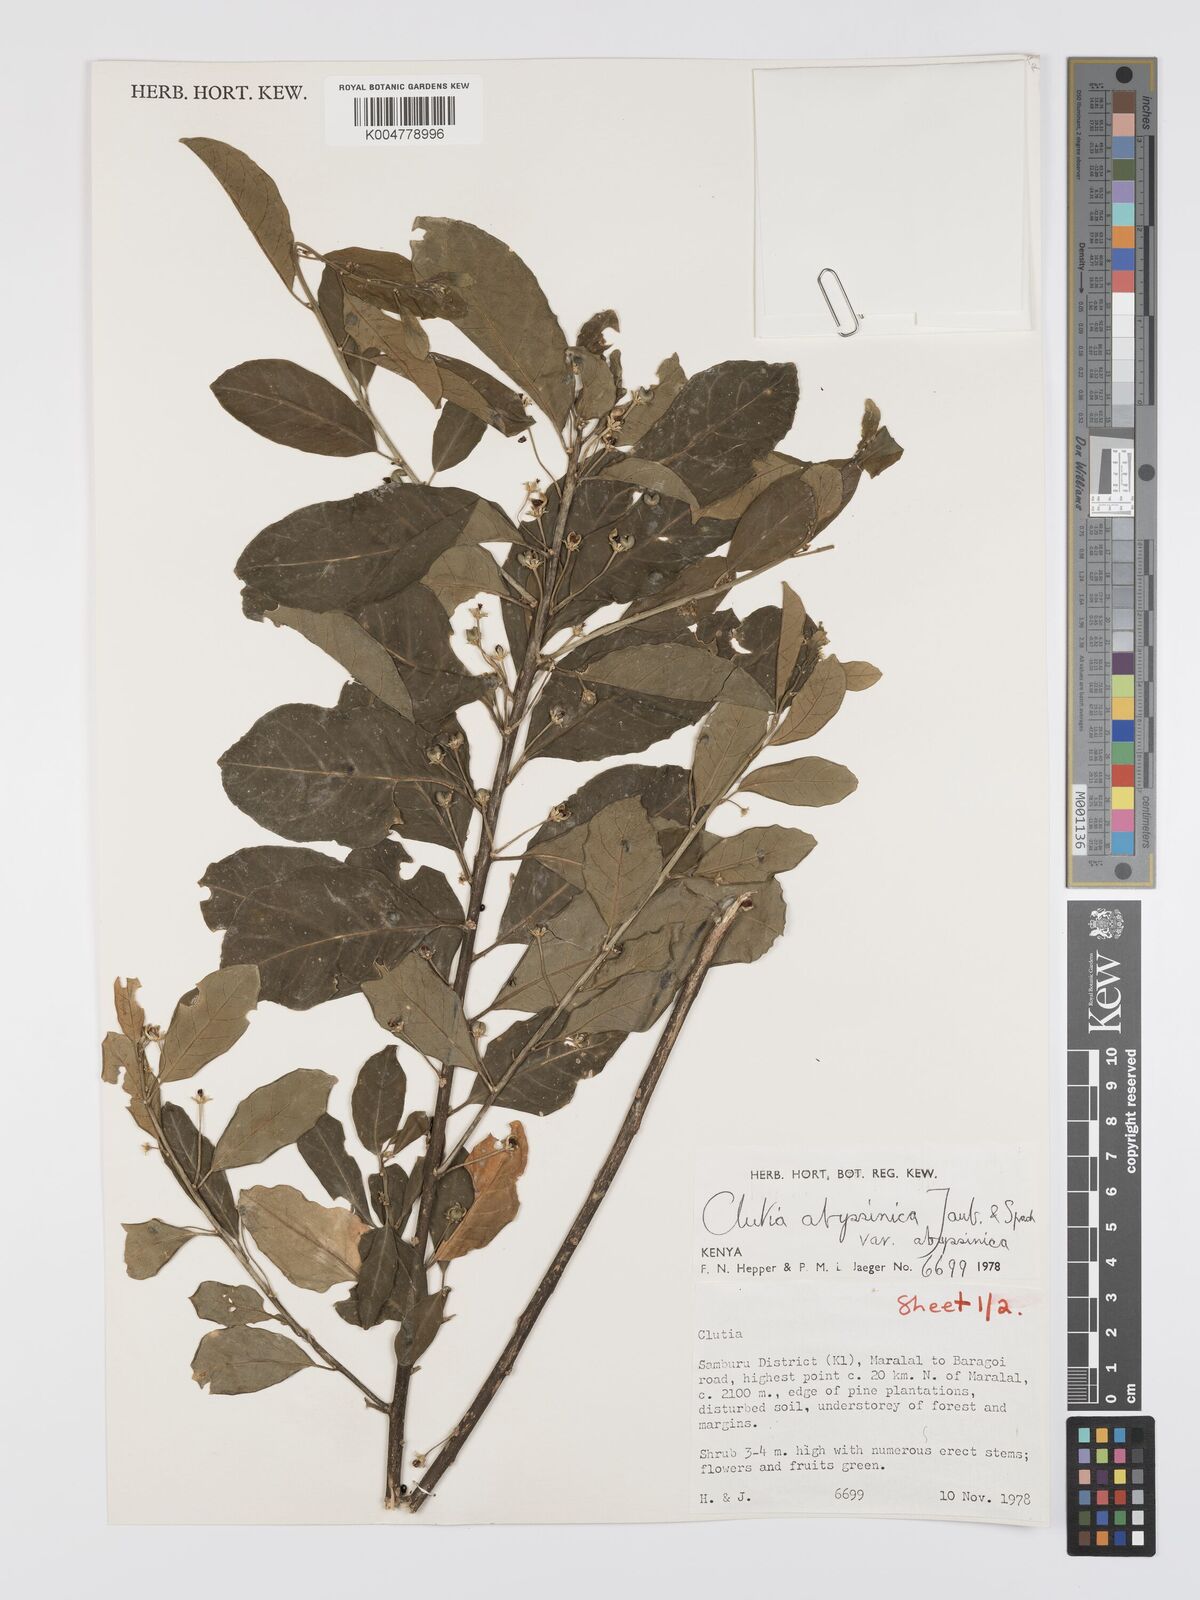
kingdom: Plantae
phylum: Tracheophyta
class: Magnoliopsida
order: Malpighiales
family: Peraceae
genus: Clutia
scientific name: Clutia abyssinica
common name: Large lightning bush
